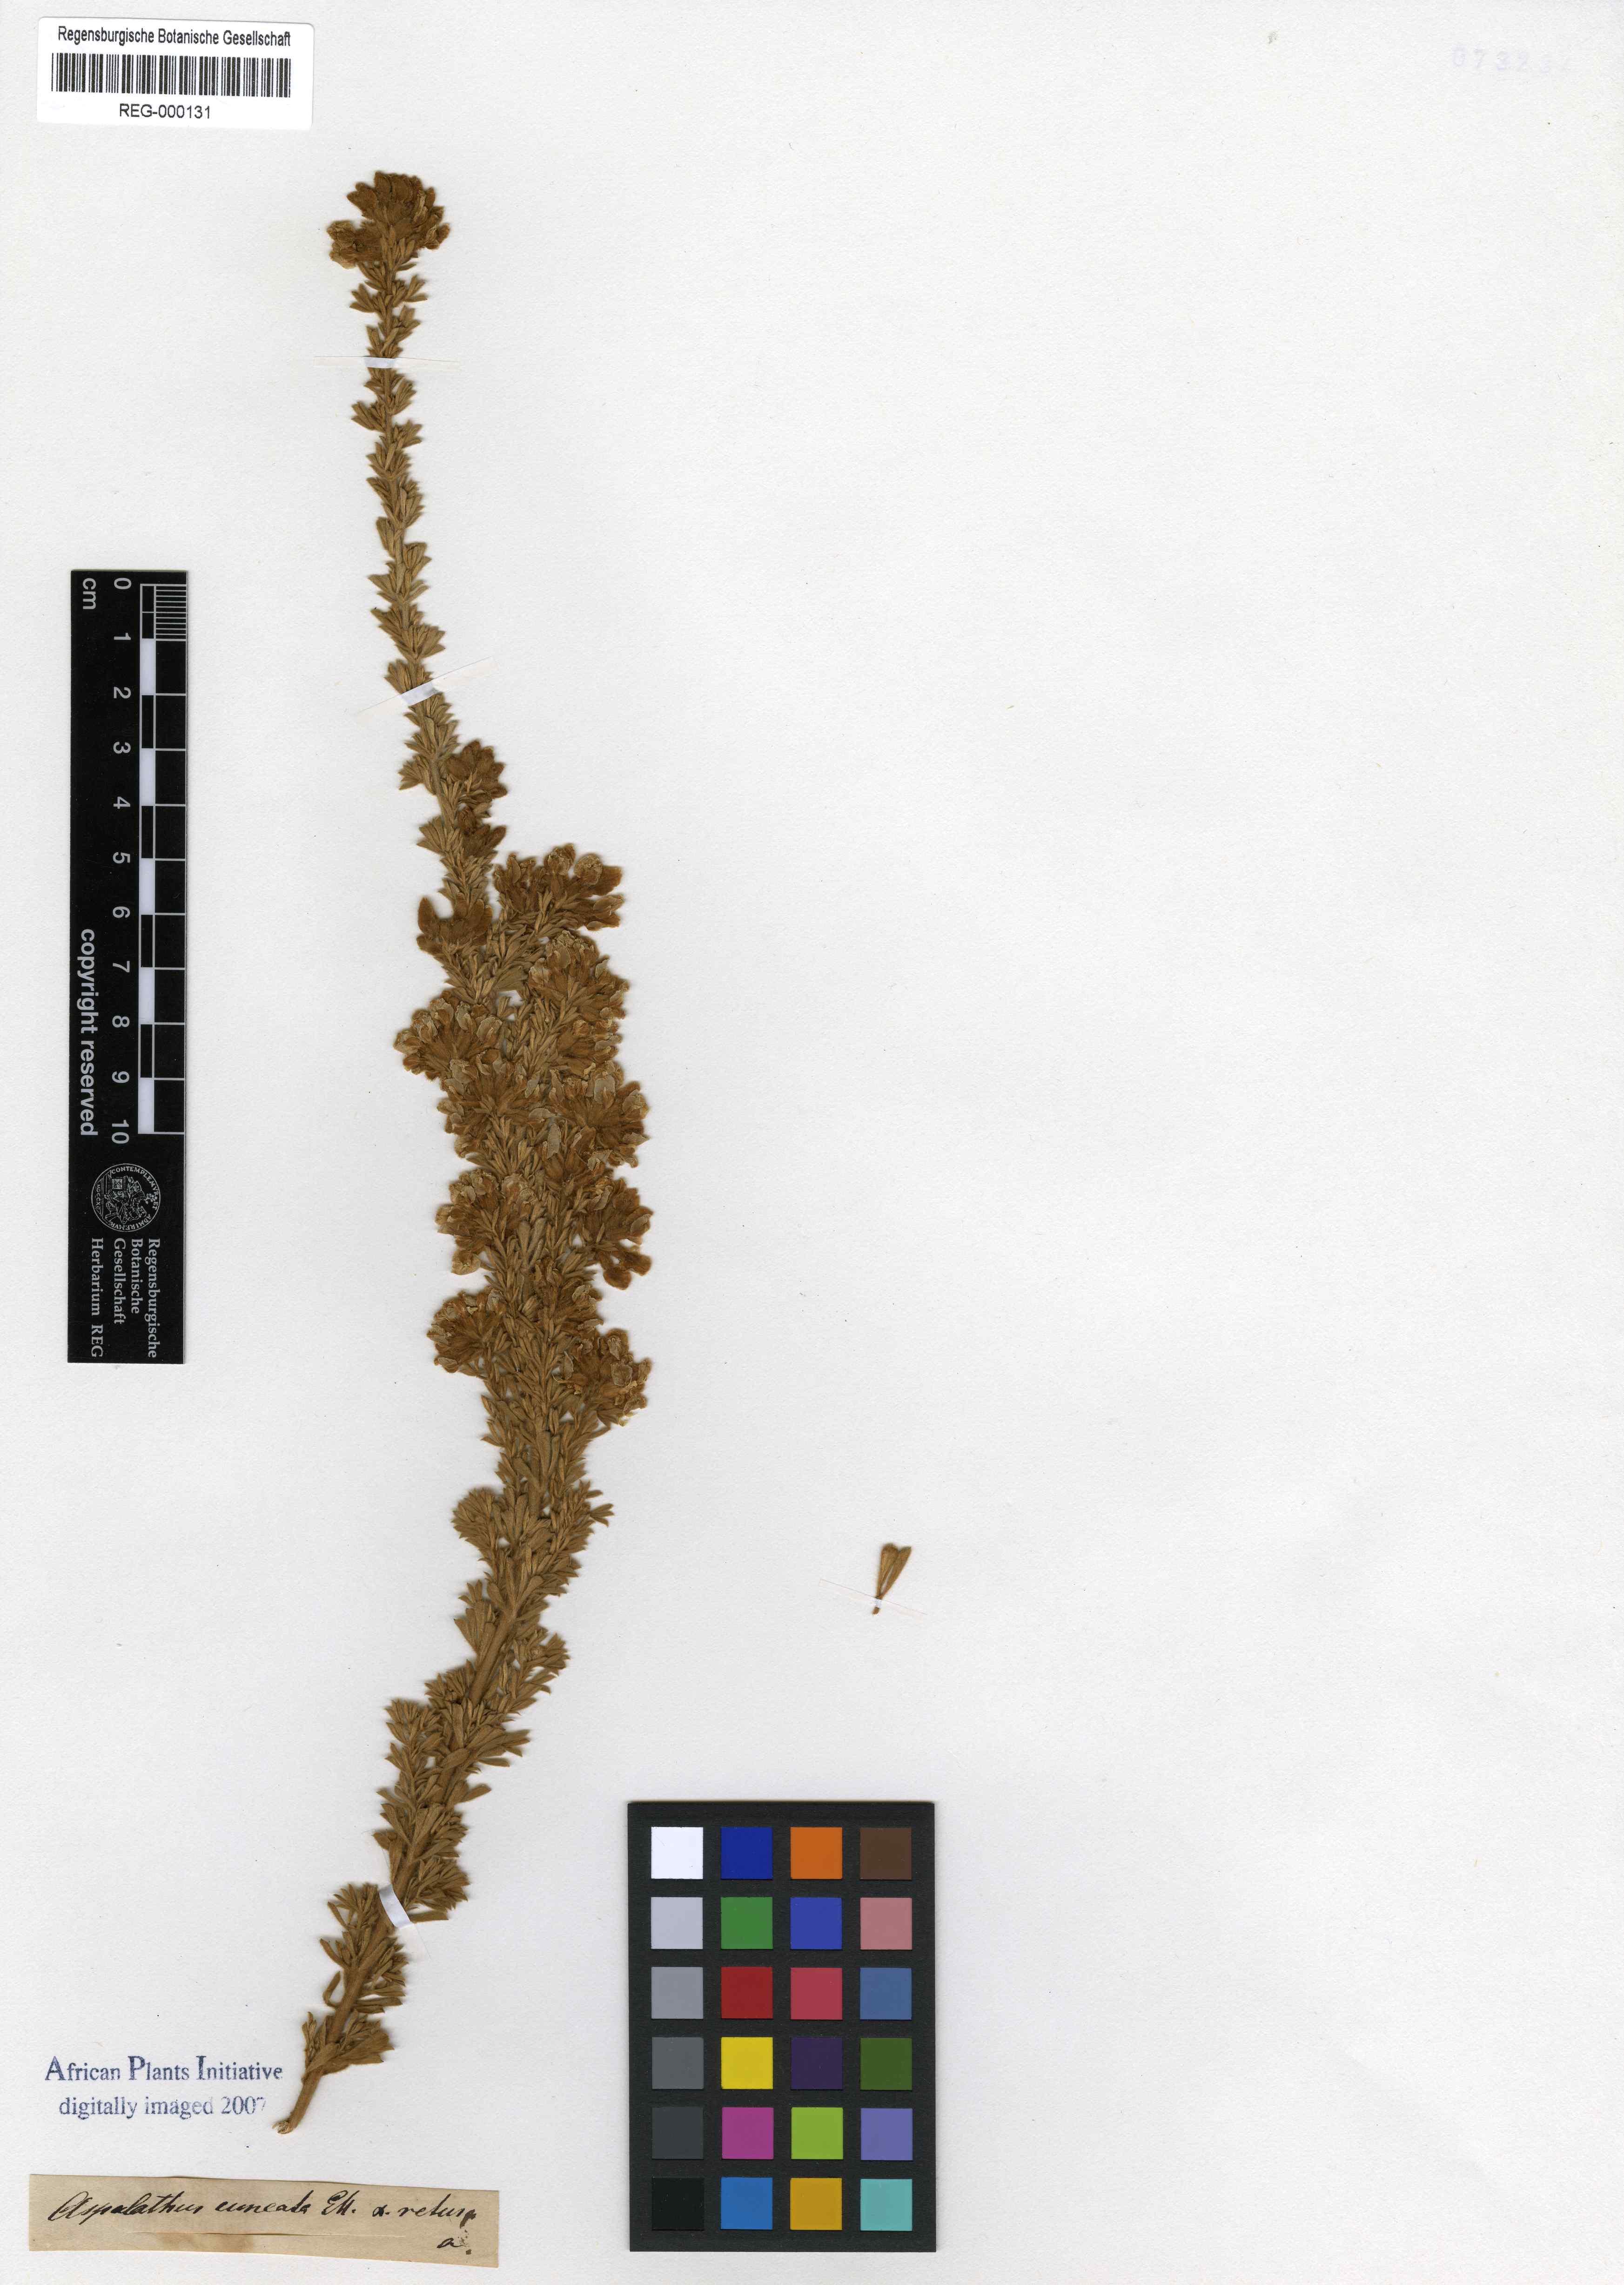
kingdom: Plantae
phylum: Tracheophyta
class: Magnoliopsida
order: Fabales
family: Fabaceae
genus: Lotononis
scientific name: Lotononis meyeri
